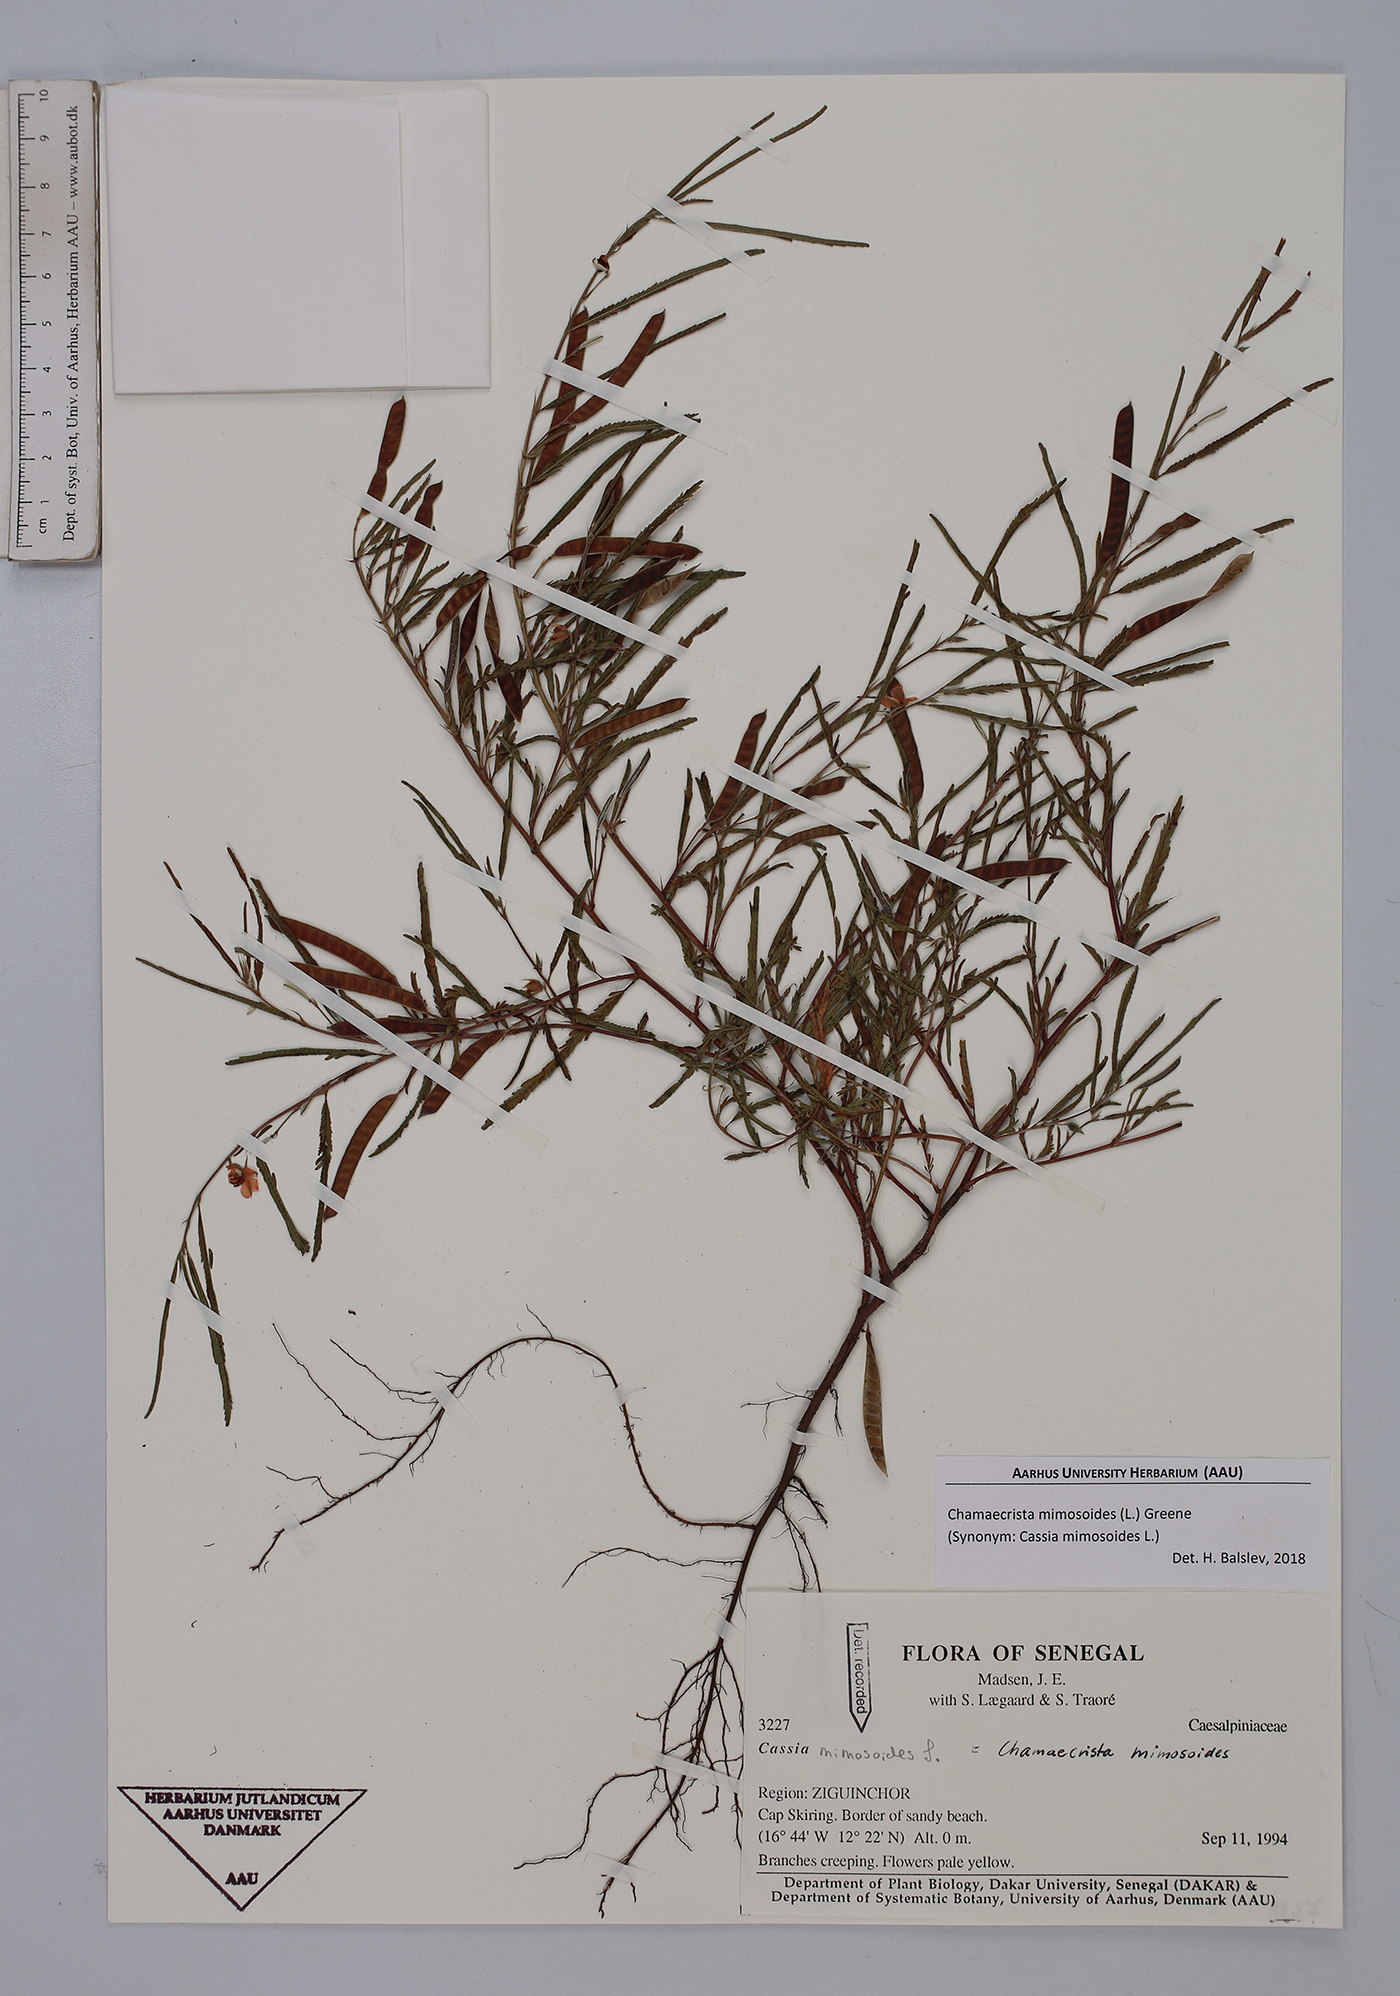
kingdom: Plantae
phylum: Tracheophyta
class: Magnoliopsida
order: Fabales
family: Fabaceae
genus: Chamaecrista
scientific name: Chamaecrista mimosoides
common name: Fish-bone cassia
